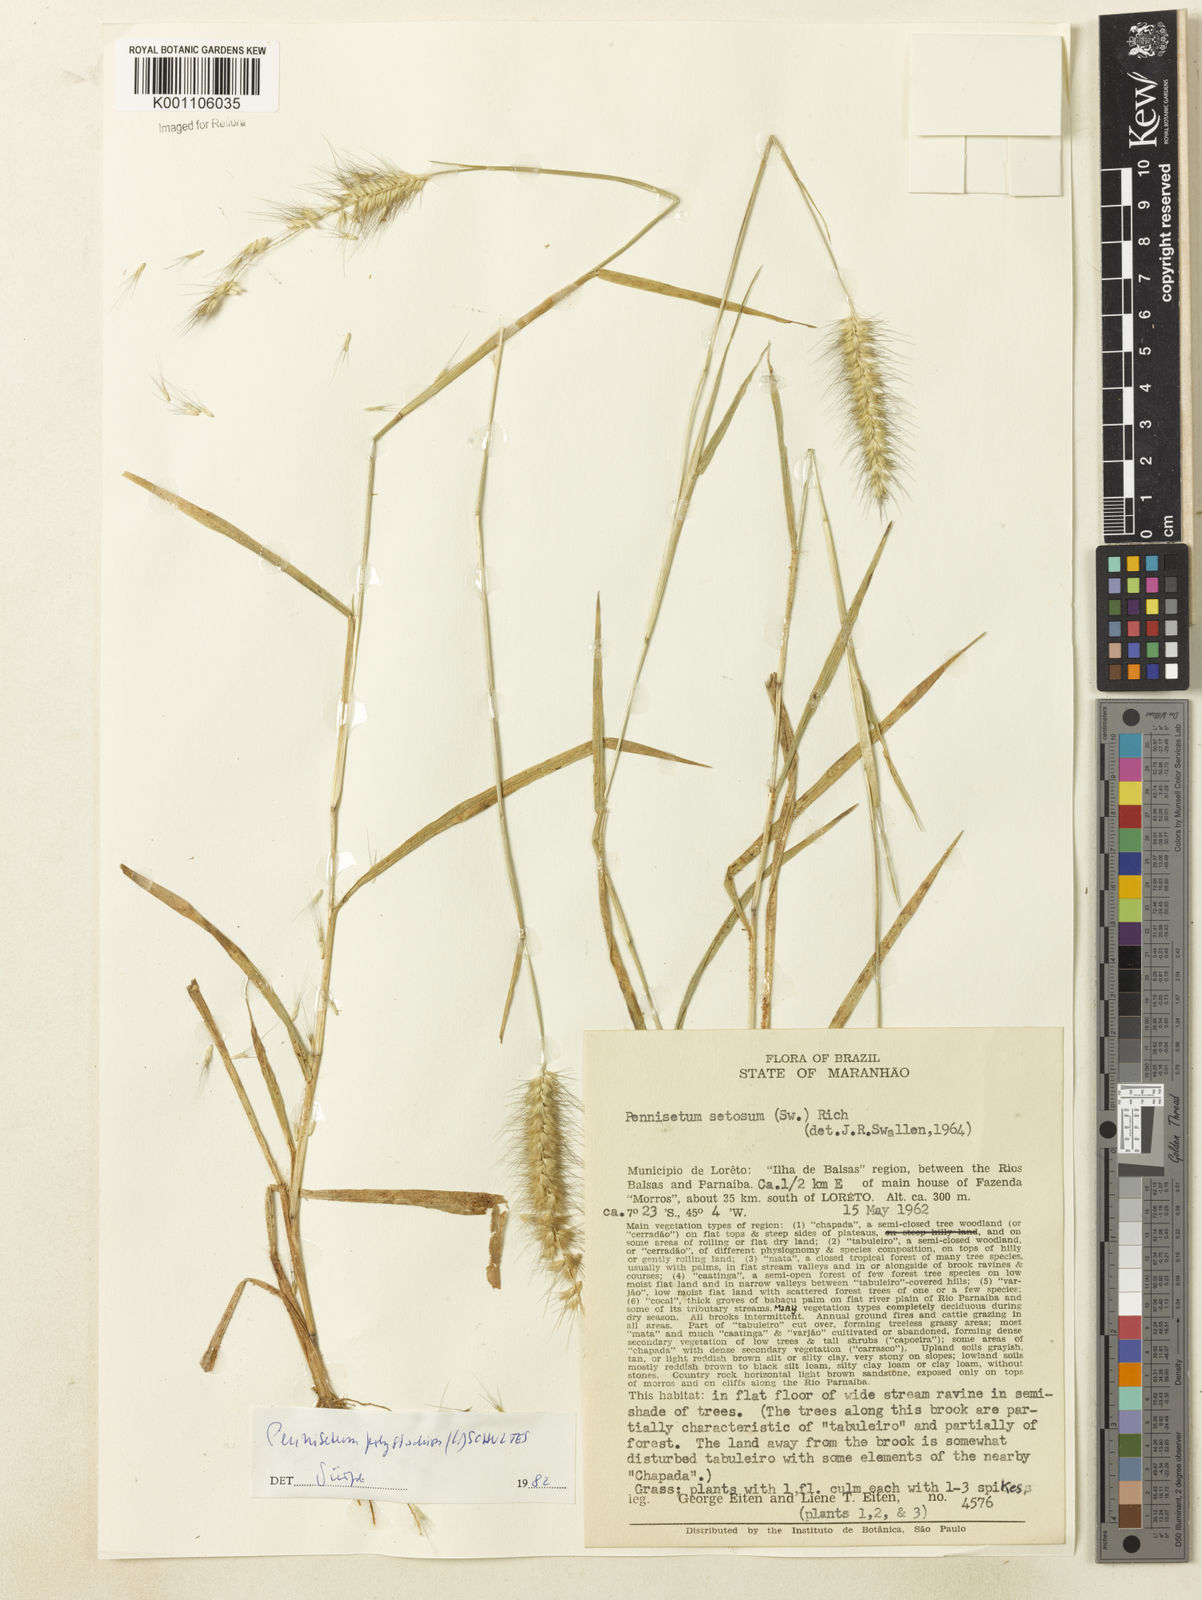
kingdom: Plantae
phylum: Tracheophyta
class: Liliopsida
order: Poales
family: Poaceae
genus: Setaria
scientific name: Setaria parviflora
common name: Knotroot bristle-grass
